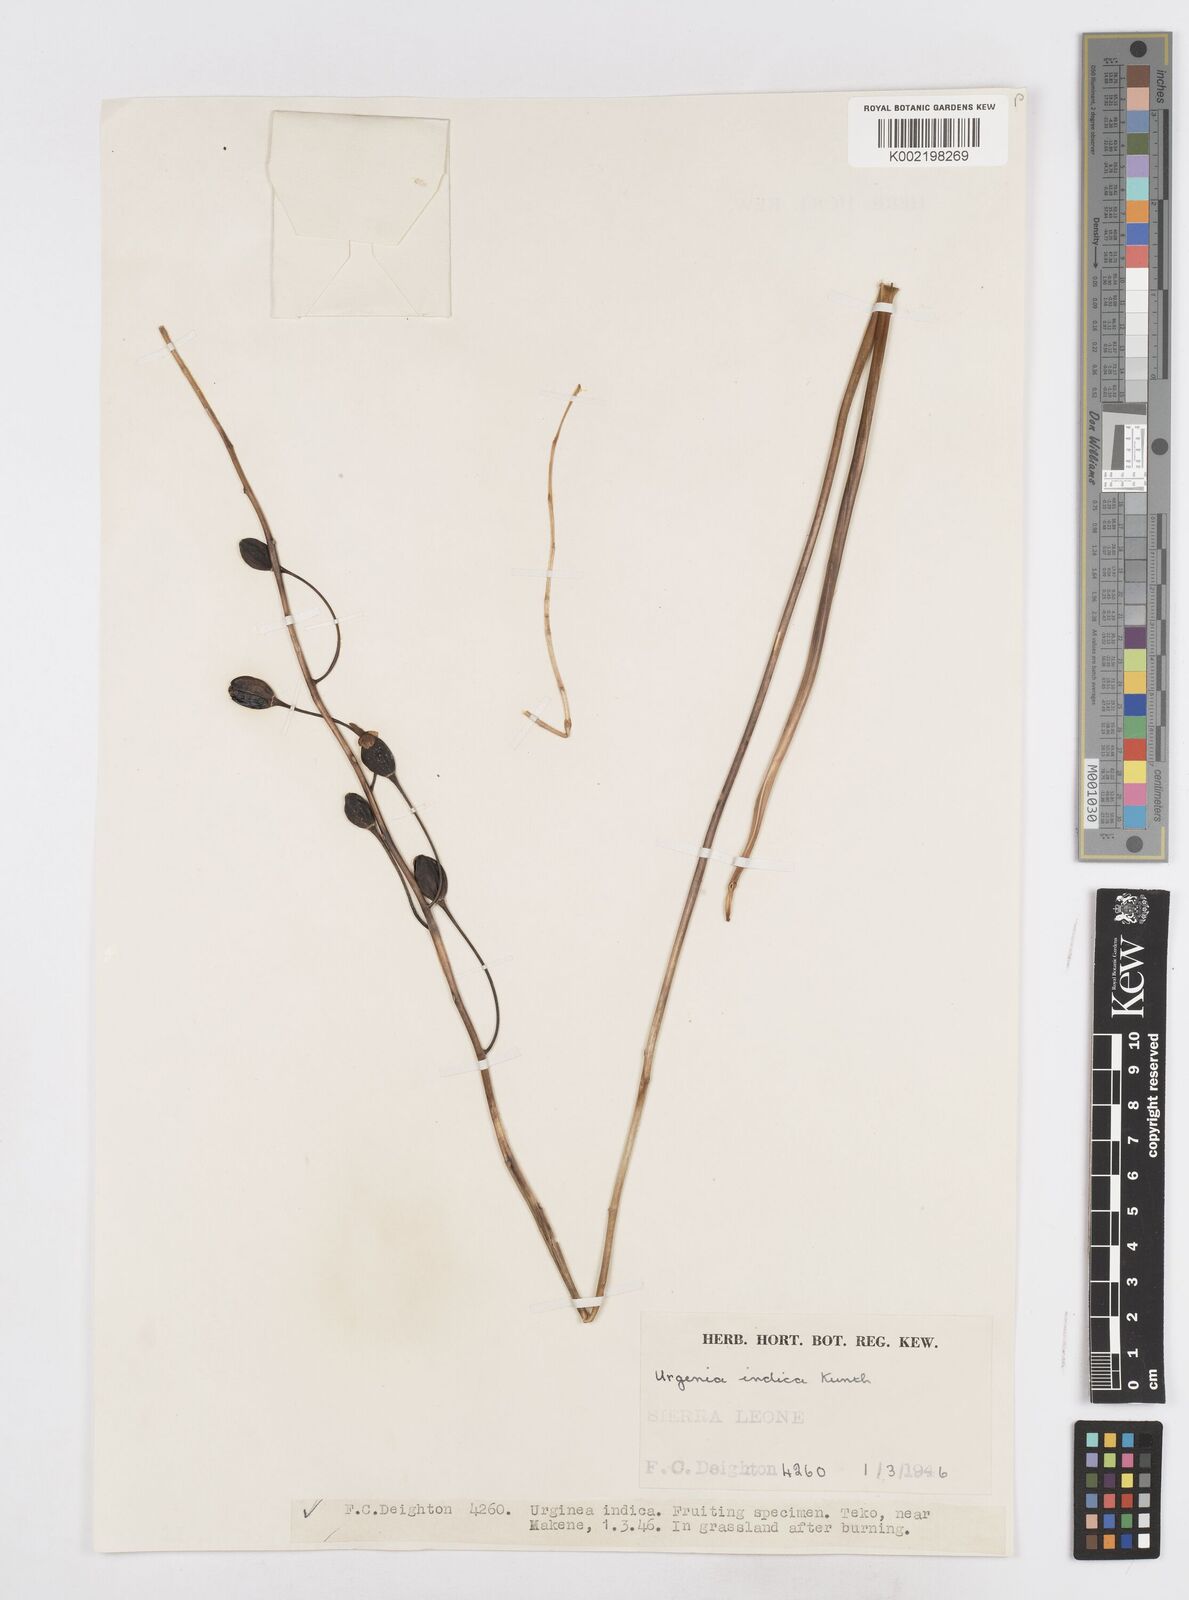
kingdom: Plantae
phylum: Tracheophyta
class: Liliopsida
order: Asparagales
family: Asparagaceae
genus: Drimia
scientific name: Drimia indica
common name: Indian-squill
